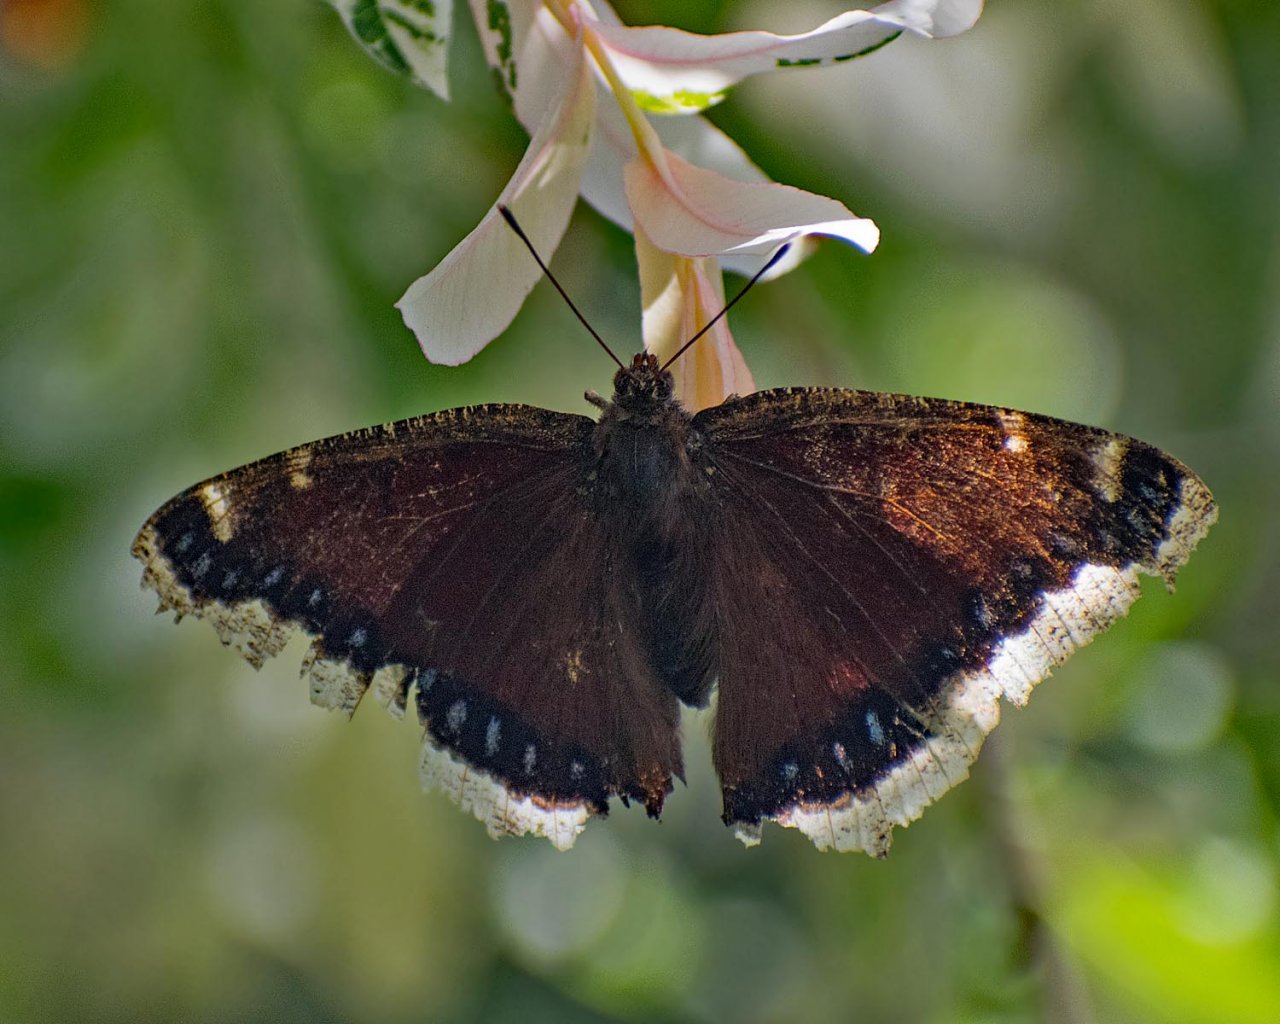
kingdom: Animalia
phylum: Arthropoda
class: Insecta
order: Lepidoptera
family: Nymphalidae
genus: Nymphalis
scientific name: Nymphalis antiopa
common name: Mourning Cloak
